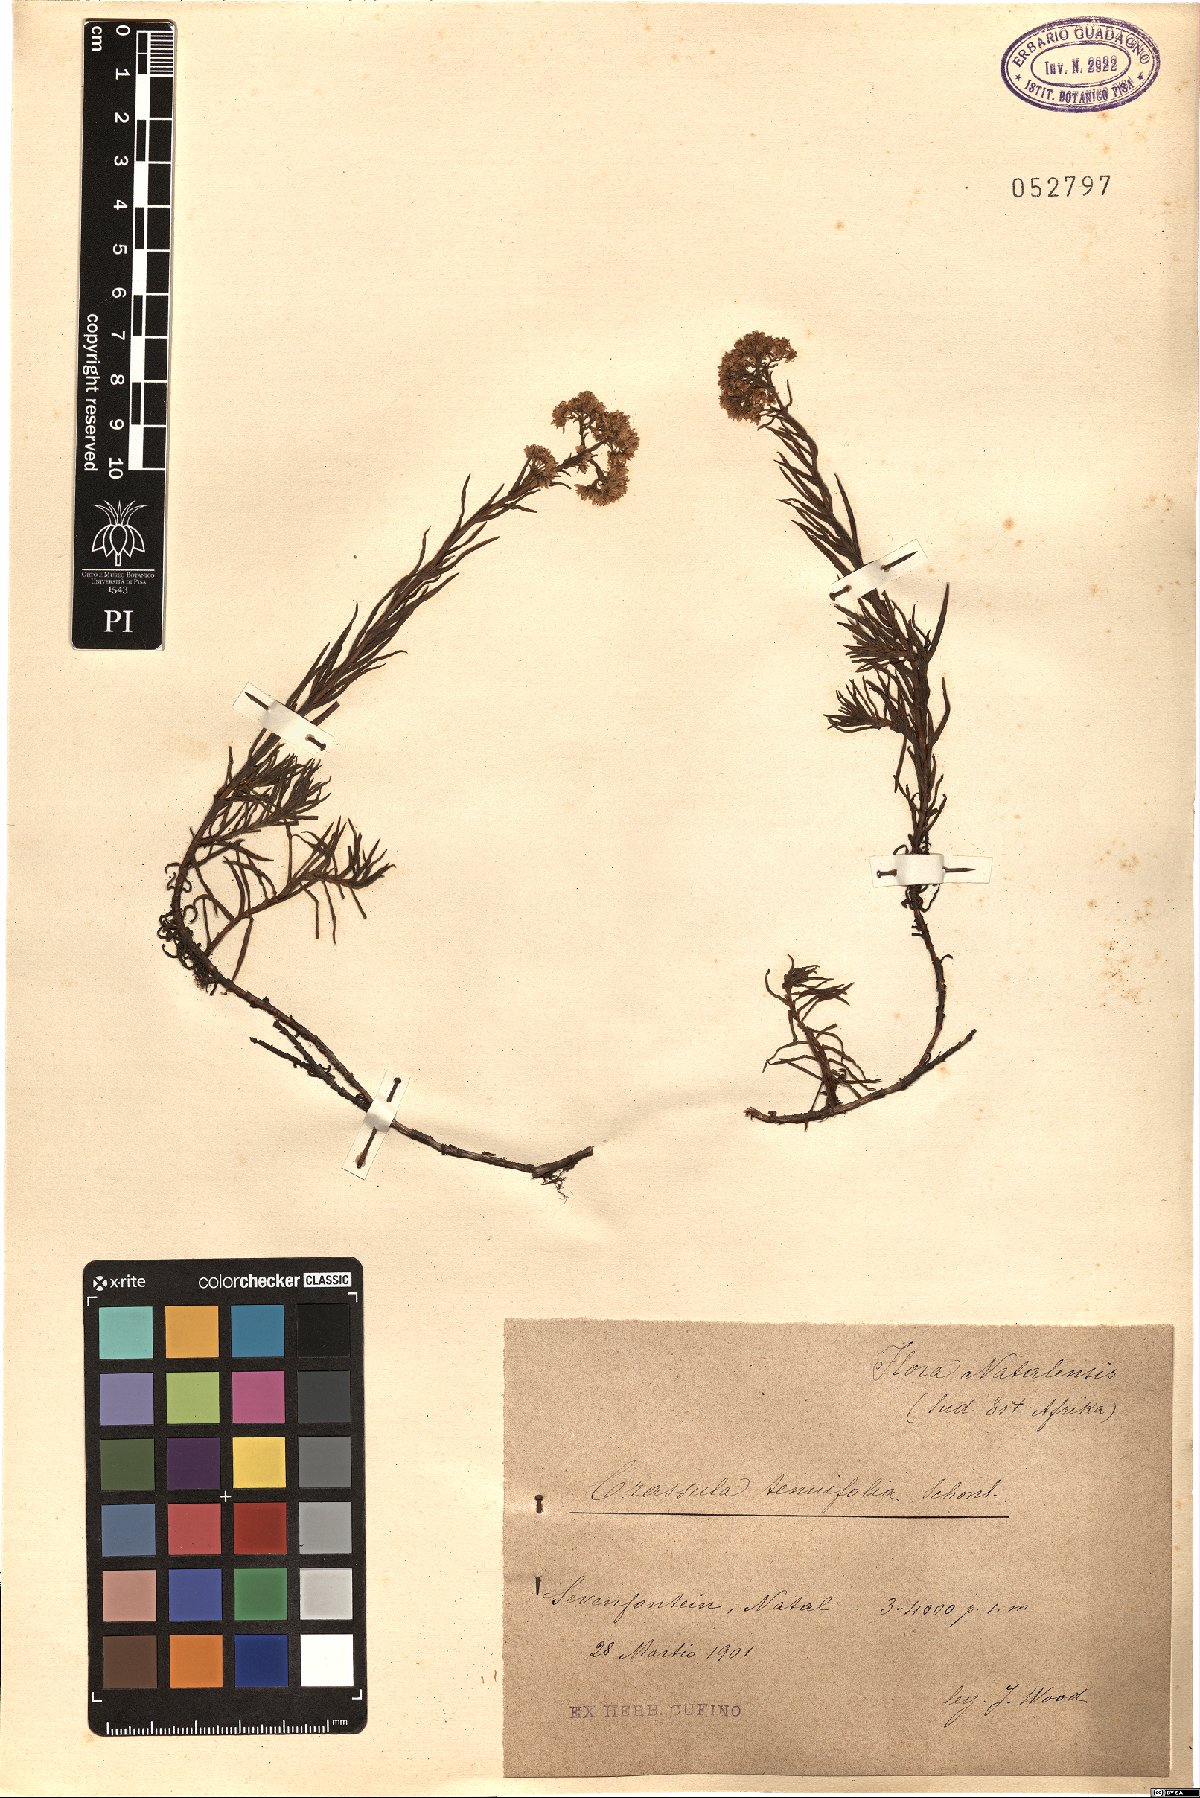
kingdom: Plantae
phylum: Tracheophyta
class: Magnoliopsida
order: Saxifragales
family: Crassulaceae
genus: Crassula
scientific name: Crassula sediflora
